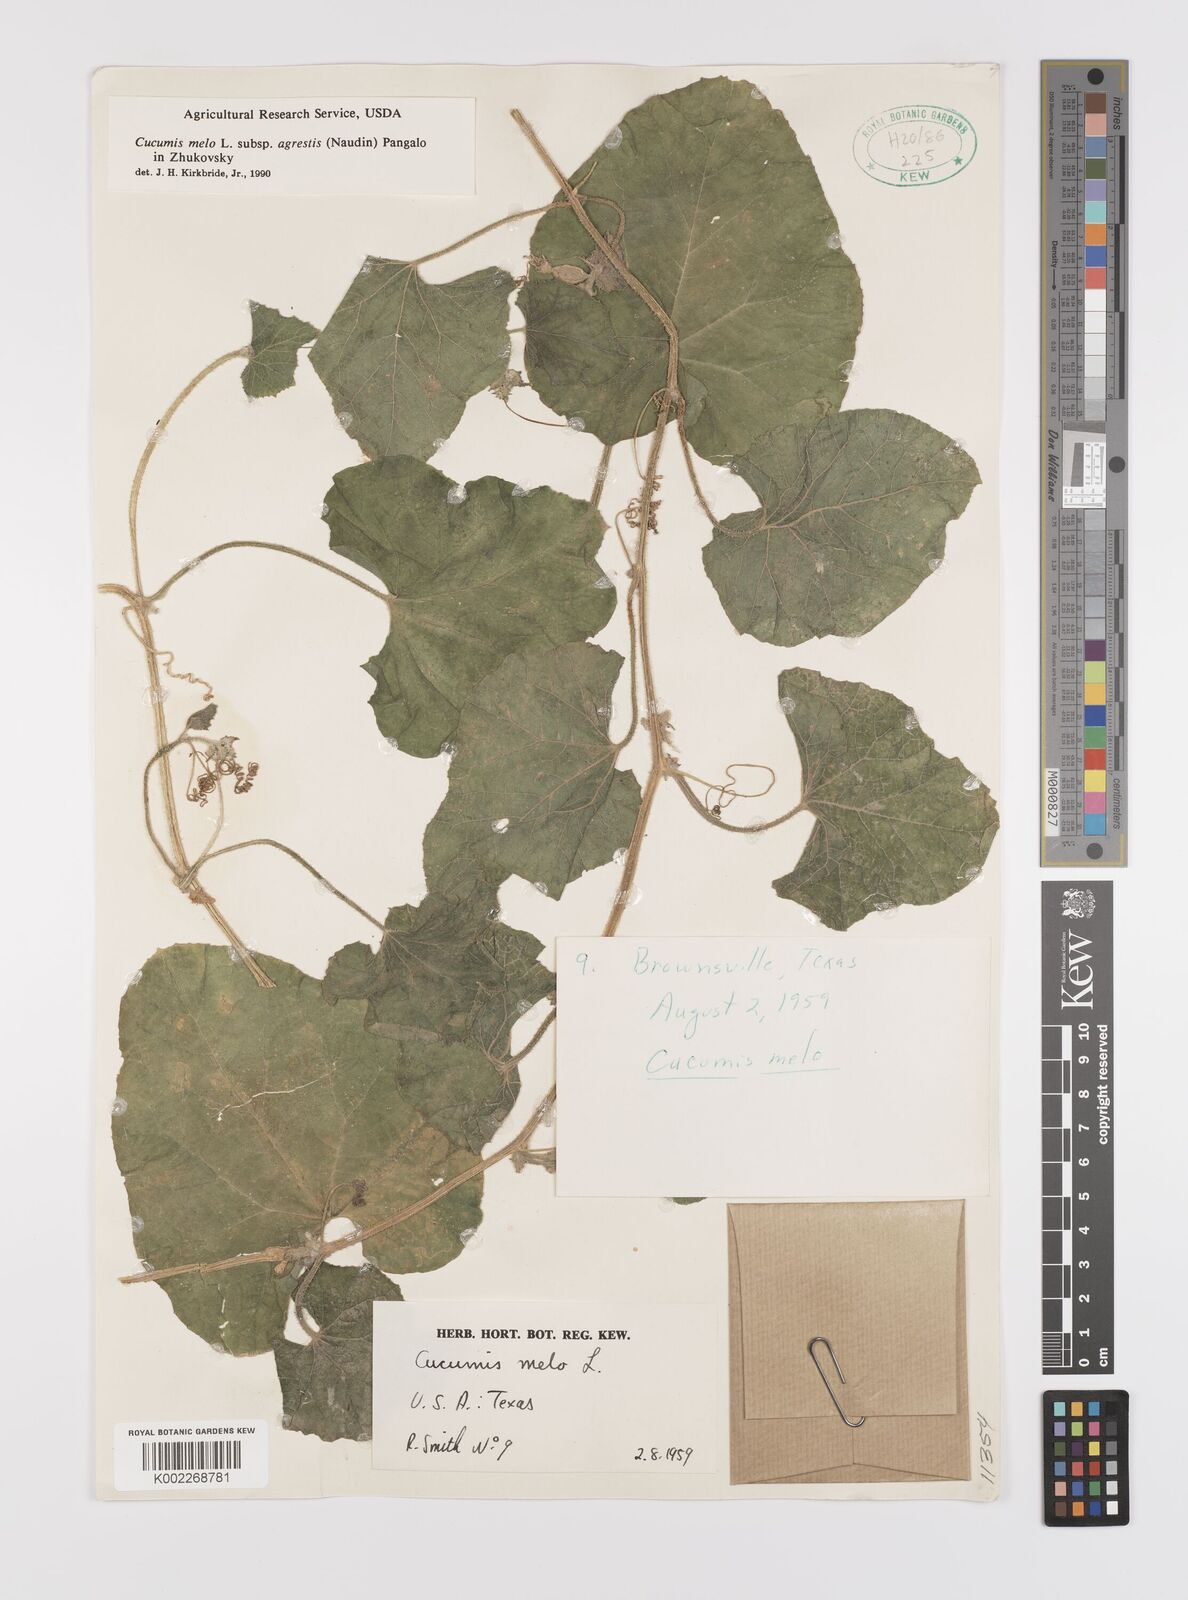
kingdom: Plantae
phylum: Tracheophyta
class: Magnoliopsida
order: Cucurbitales
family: Cucurbitaceae
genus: Cucumis
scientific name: Cucumis melo
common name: Melon
